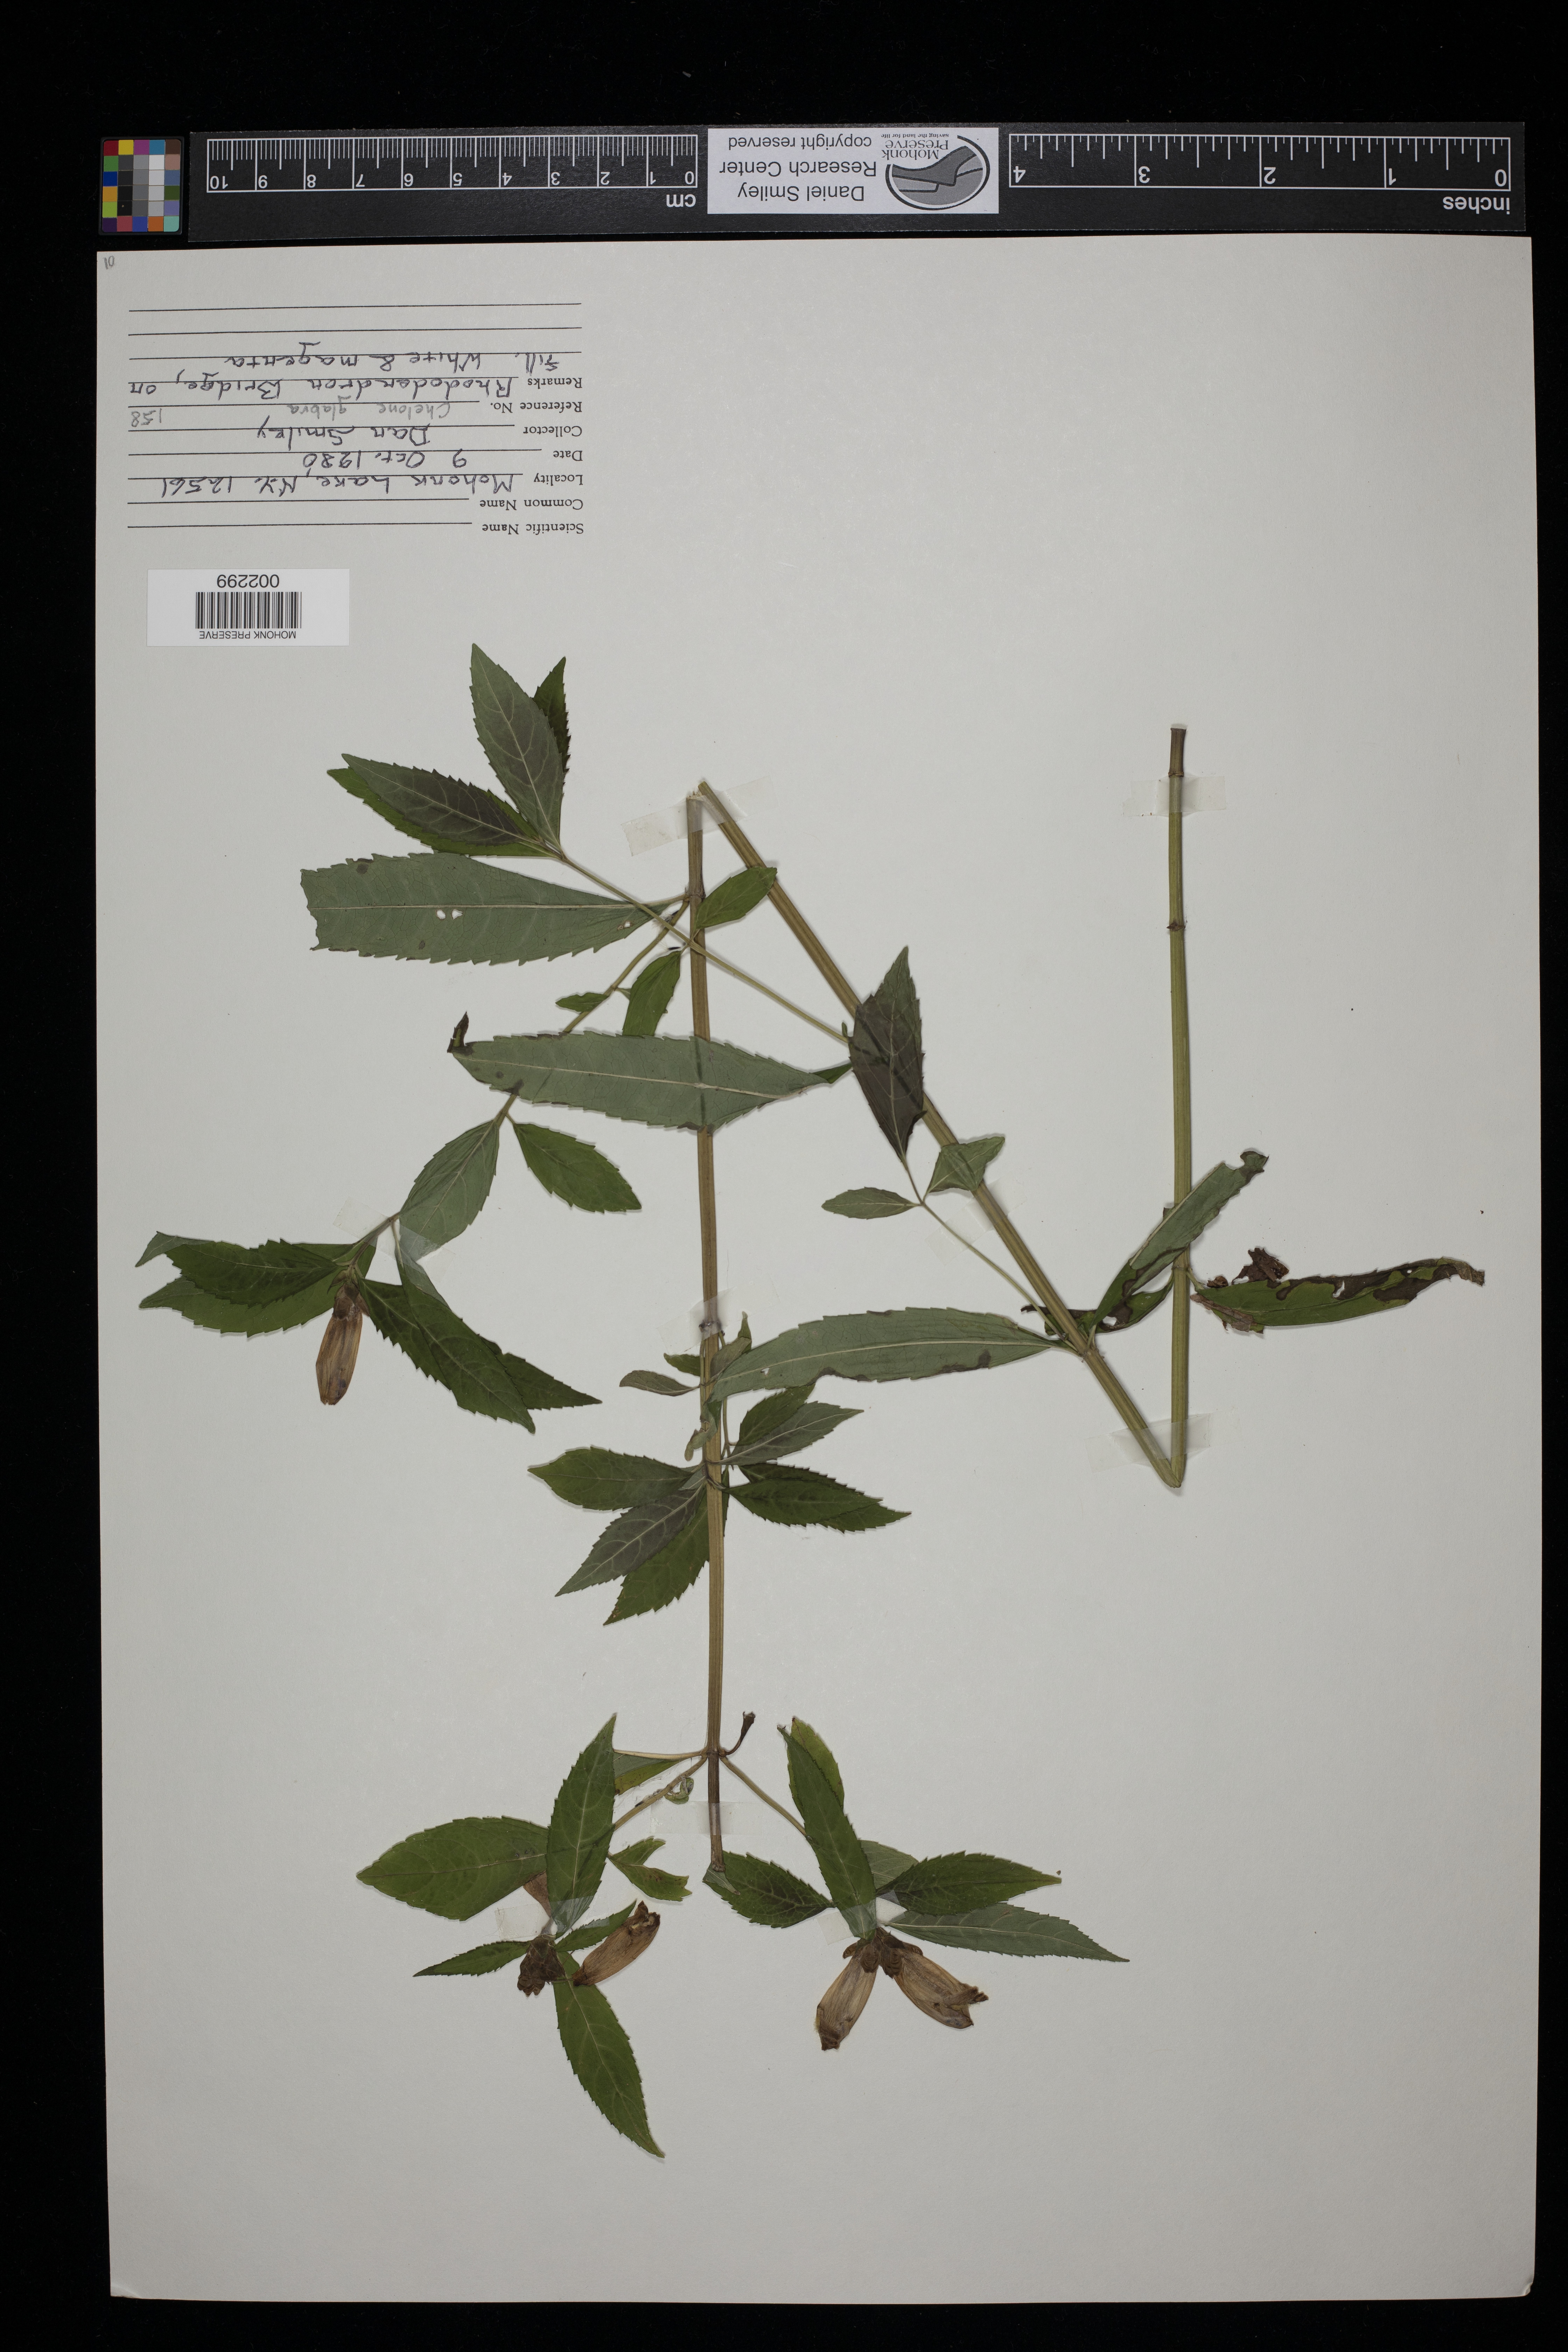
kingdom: Plantae
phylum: Tracheophyta
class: Magnoliopsida
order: Lamiales
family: Plantaginaceae
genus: Chelone
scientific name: Chelone glabra
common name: Snakehead
